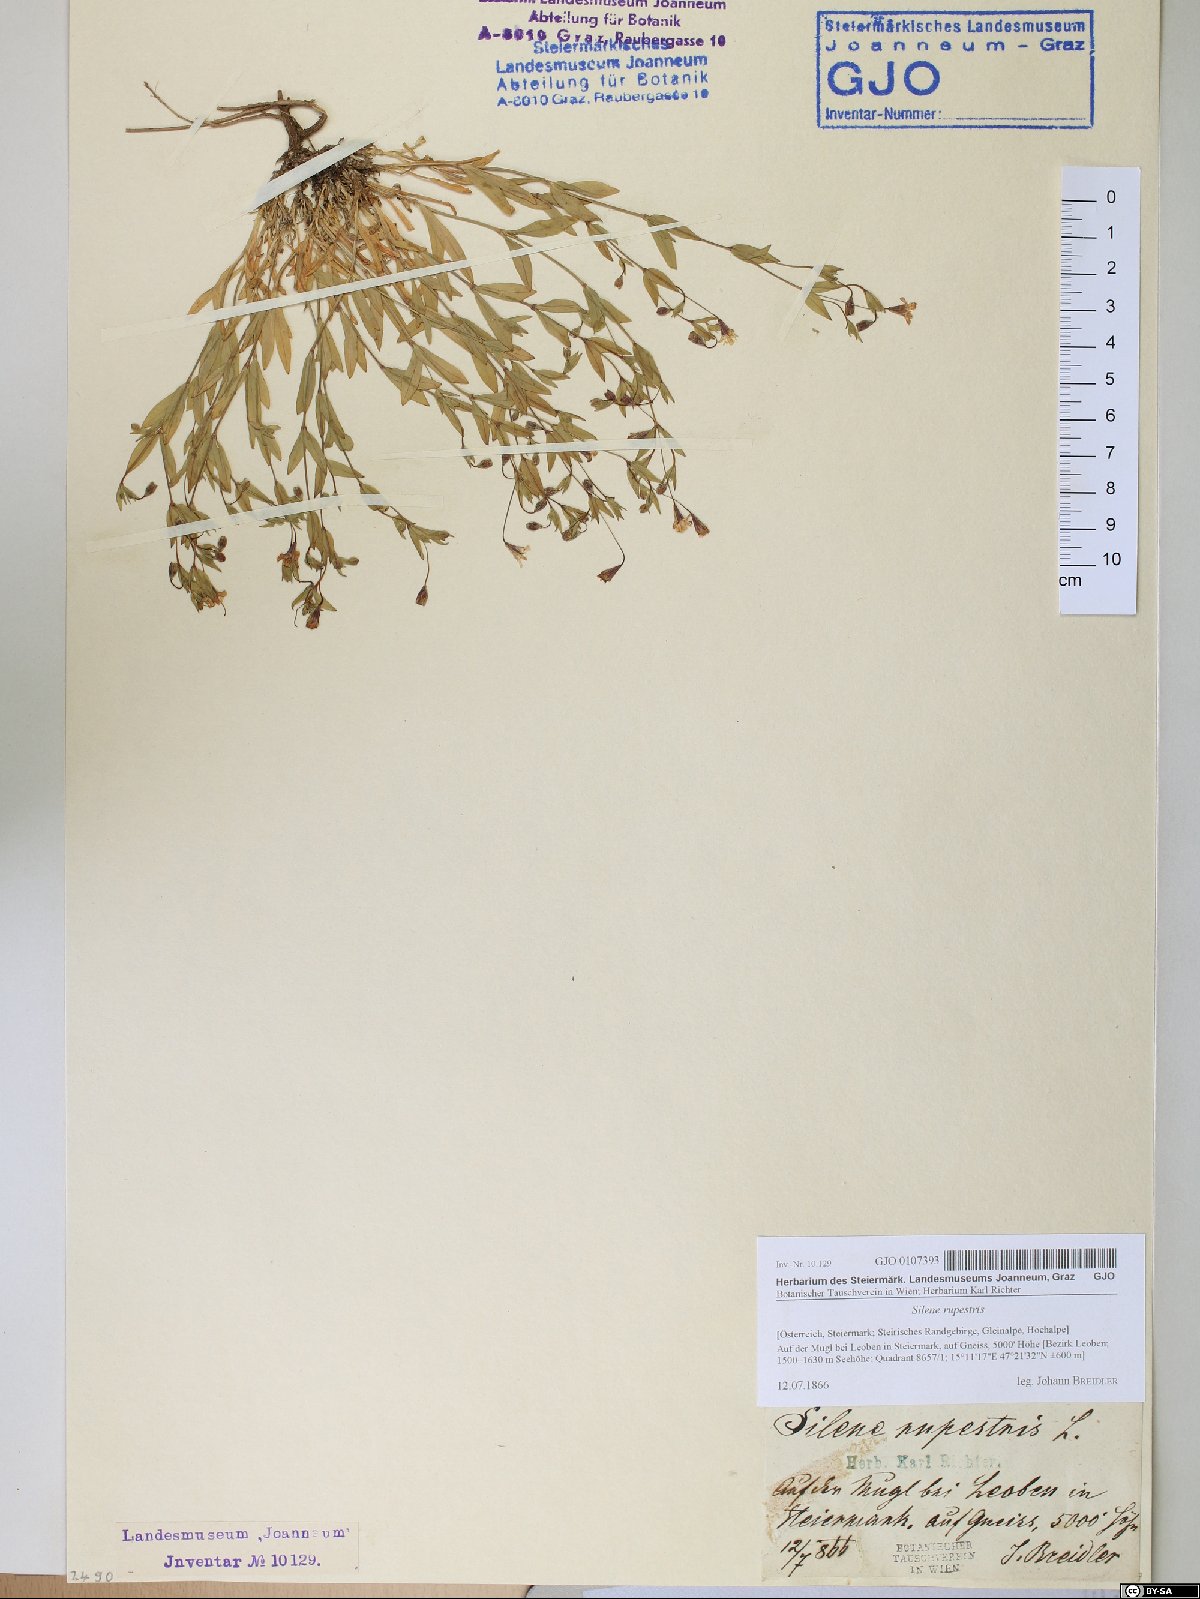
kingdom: Plantae
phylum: Tracheophyta
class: Magnoliopsida
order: Caryophyllales
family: Caryophyllaceae
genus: Atocion
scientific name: Atocion rupestre
